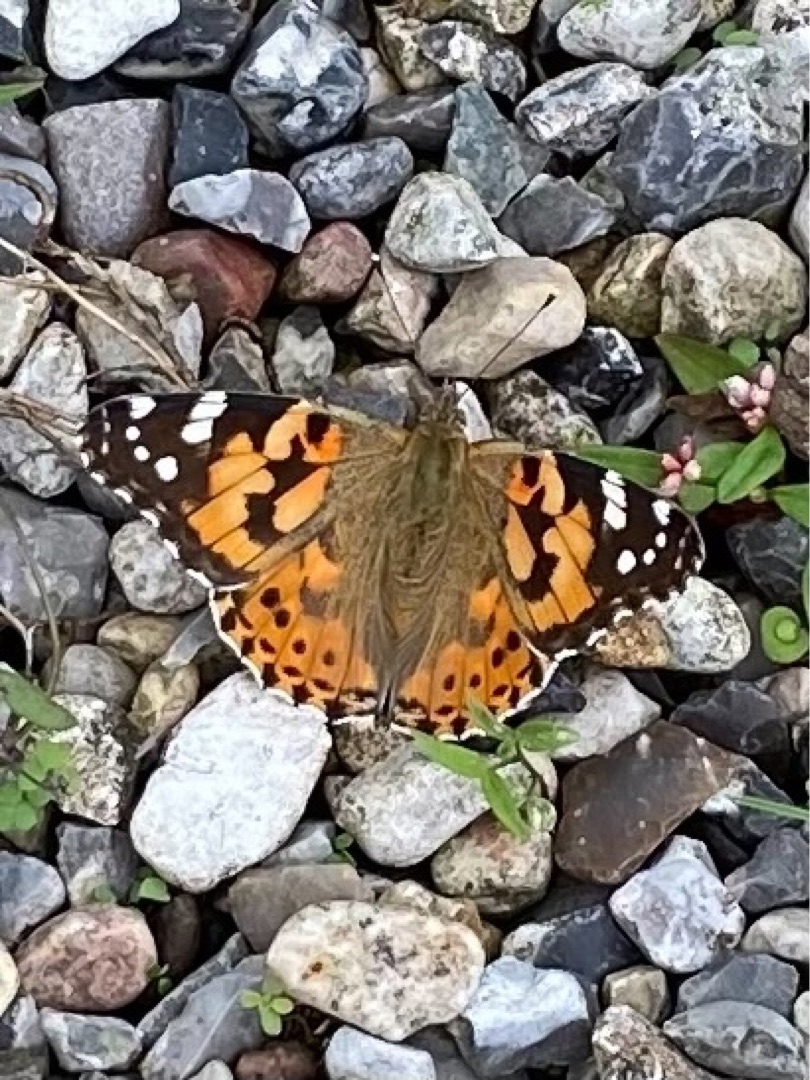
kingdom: Animalia
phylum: Arthropoda
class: Insecta
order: Lepidoptera
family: Nymphalidae
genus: Vanessa
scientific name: Vanessa cardui
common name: Tidselsommerfugl
